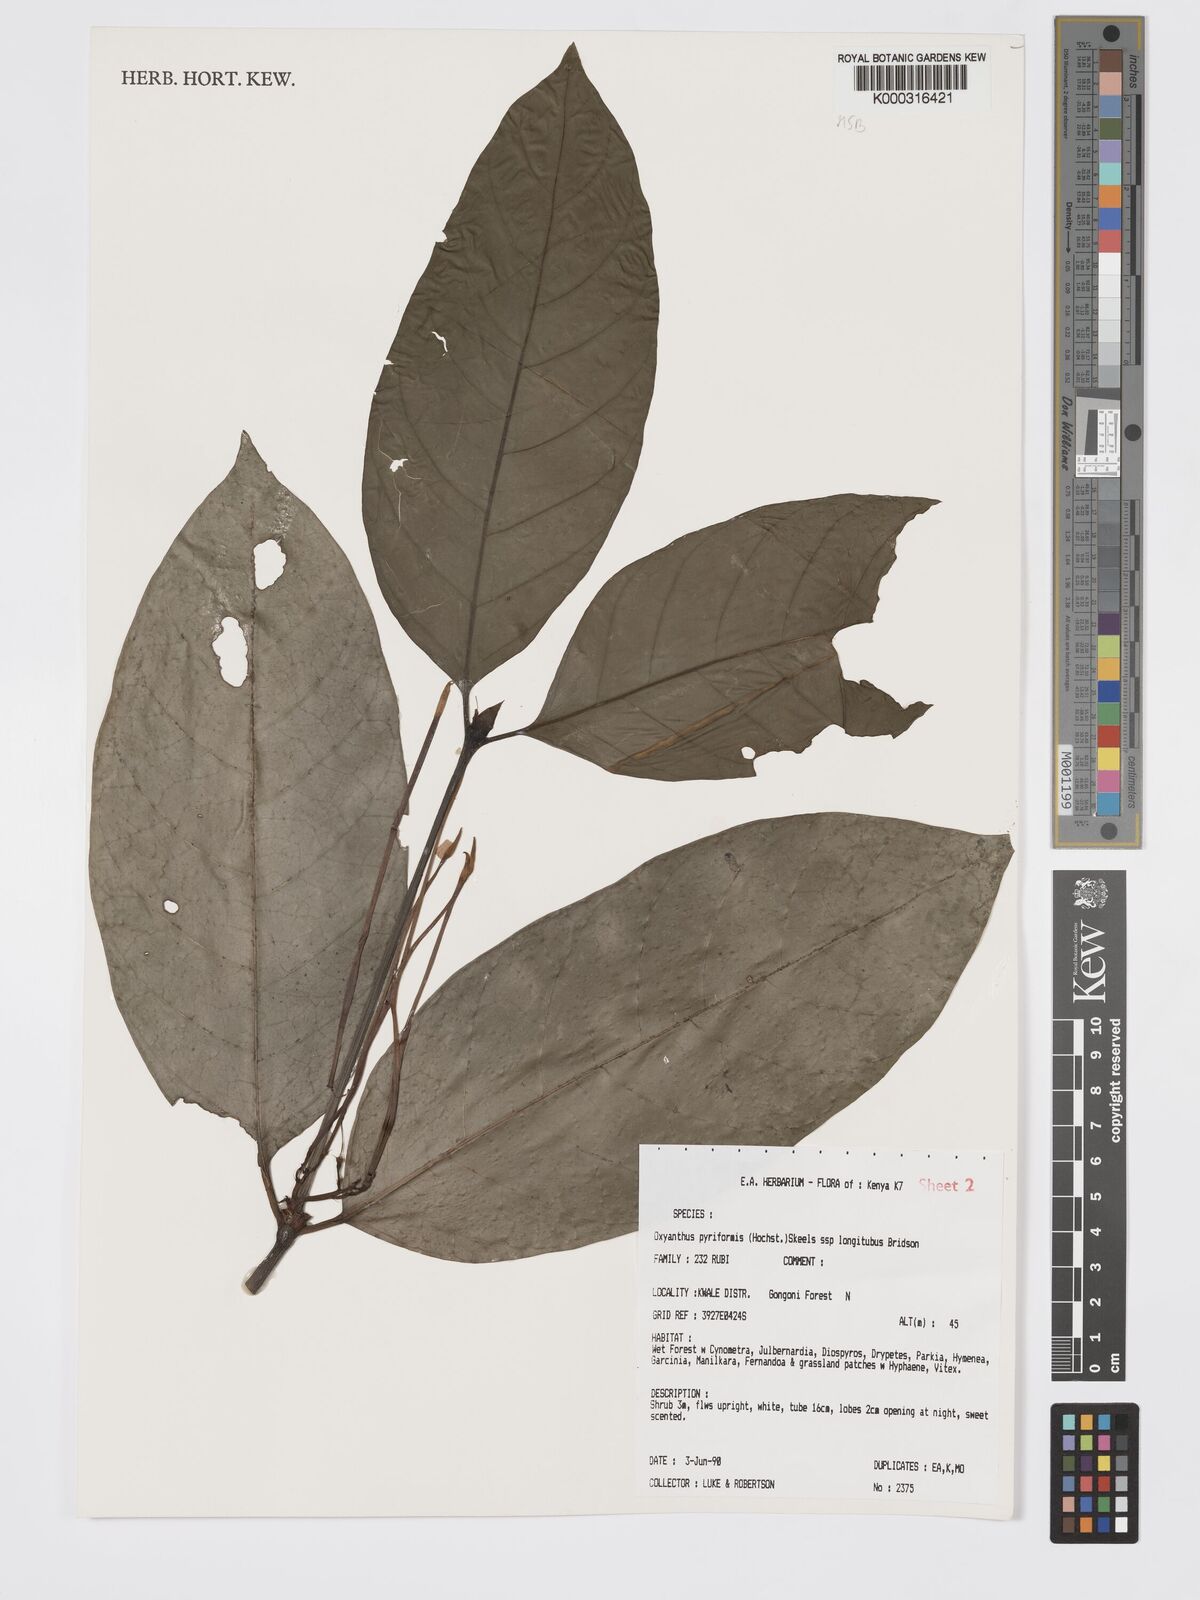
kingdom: Plantae
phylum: Tracheophyta
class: Magnoliopsida
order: Gentianales
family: Rubiaceae
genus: Oxyanthus
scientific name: Oxyanthus pyriformis
